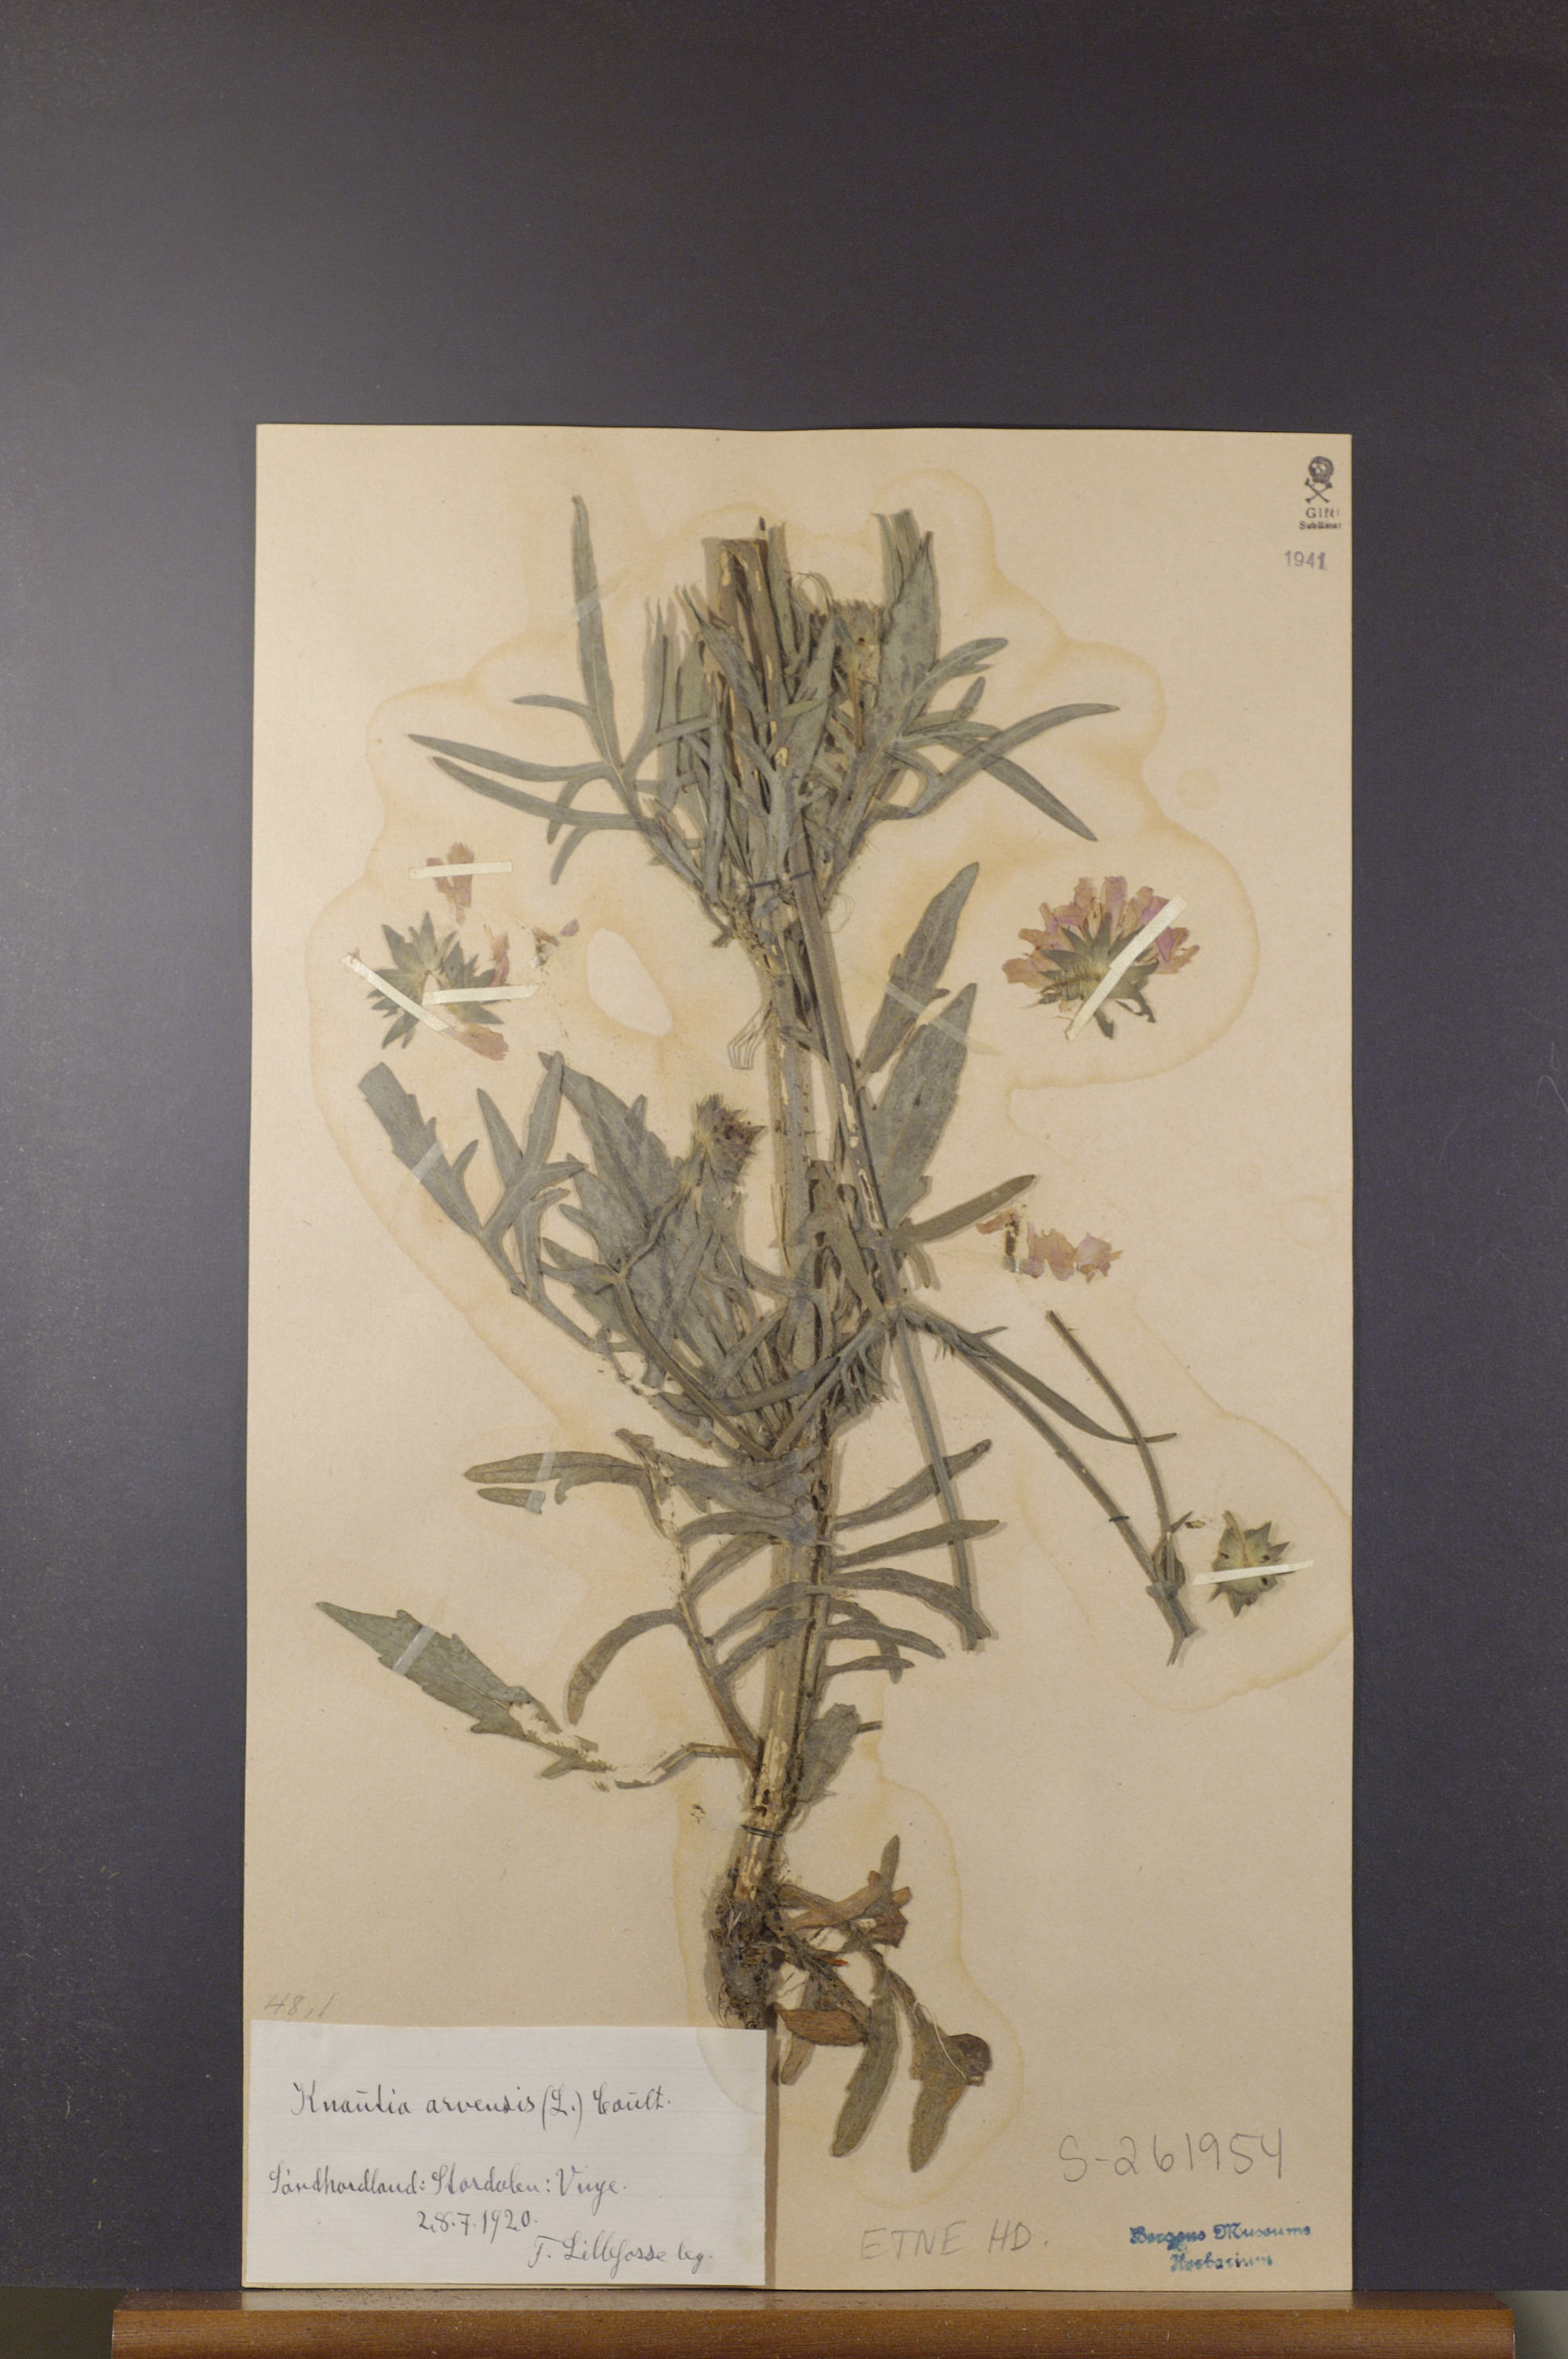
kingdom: Plantae
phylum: Tracheophyta
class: Magnoliopsida
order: Dipsacales
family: Caprifoliaceae
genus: Knautia
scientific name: Knautia arvensis
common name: Field scabiosa
